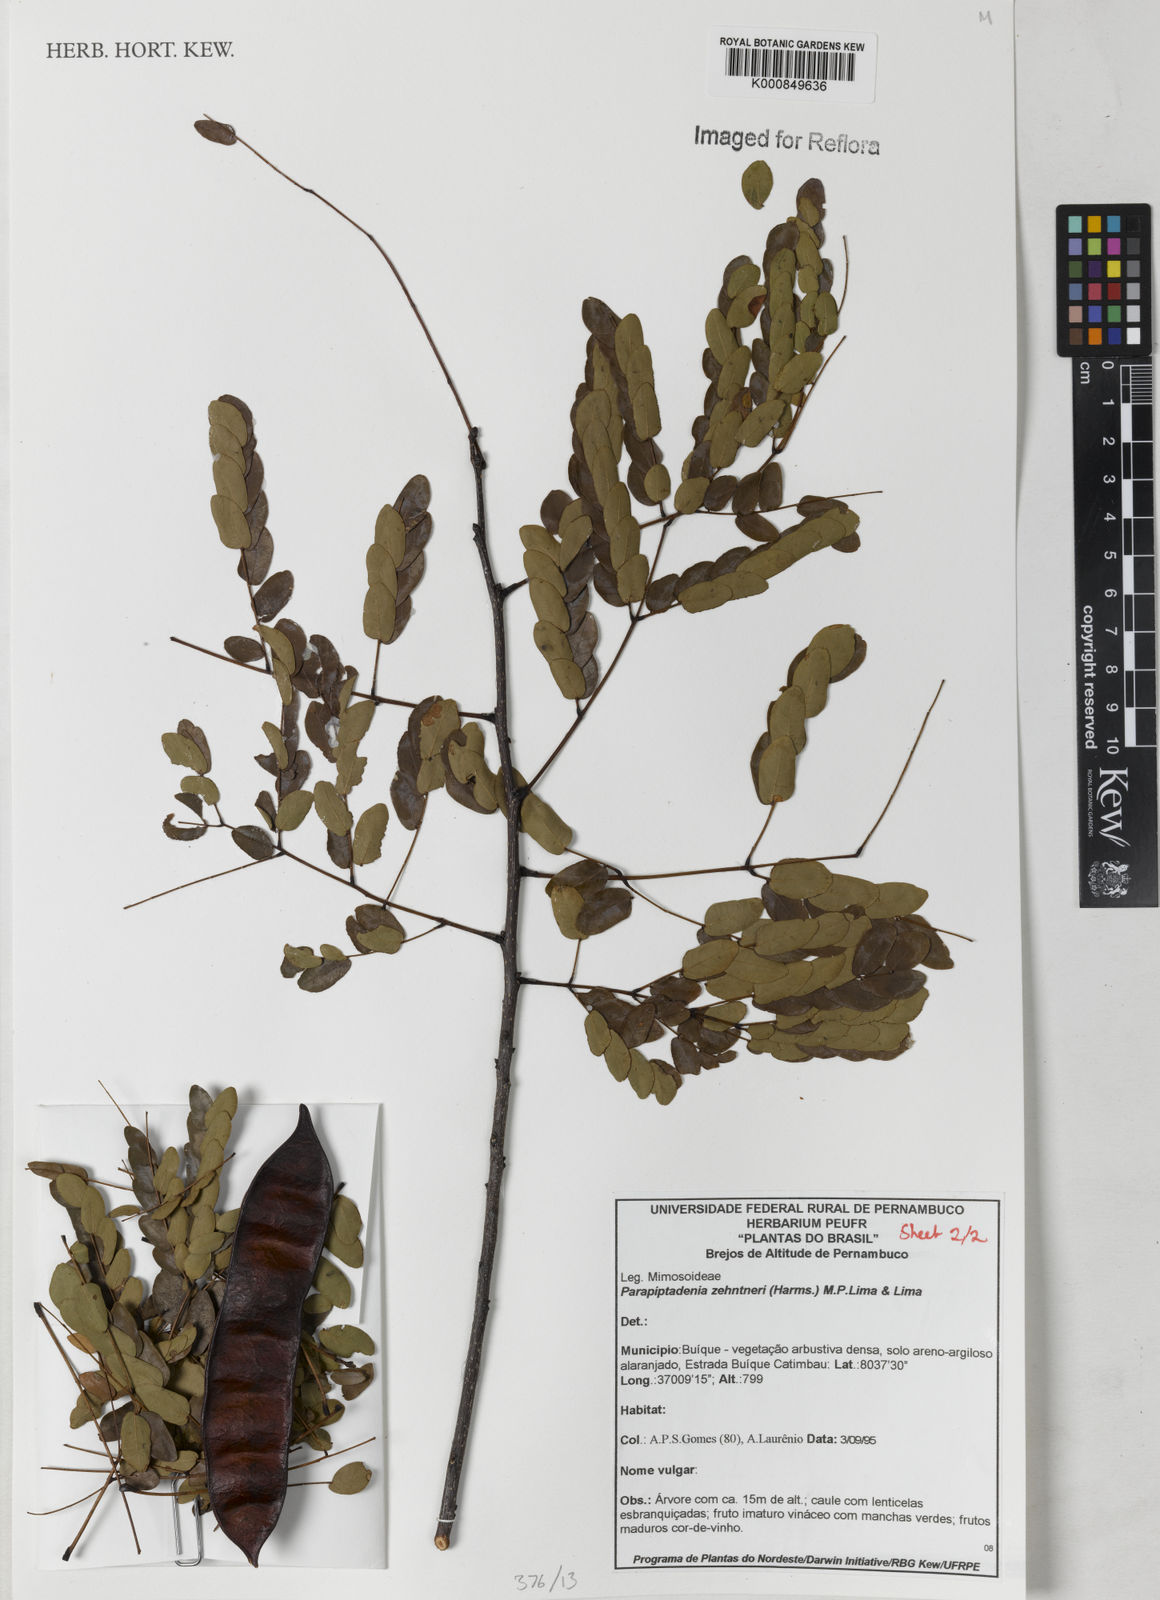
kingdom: Plantae
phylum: Tracheophyta
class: Magnoliopsida
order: Fabales
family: Fabaceae
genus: Parapiptadenia
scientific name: Parapiptadenia zehntneri
